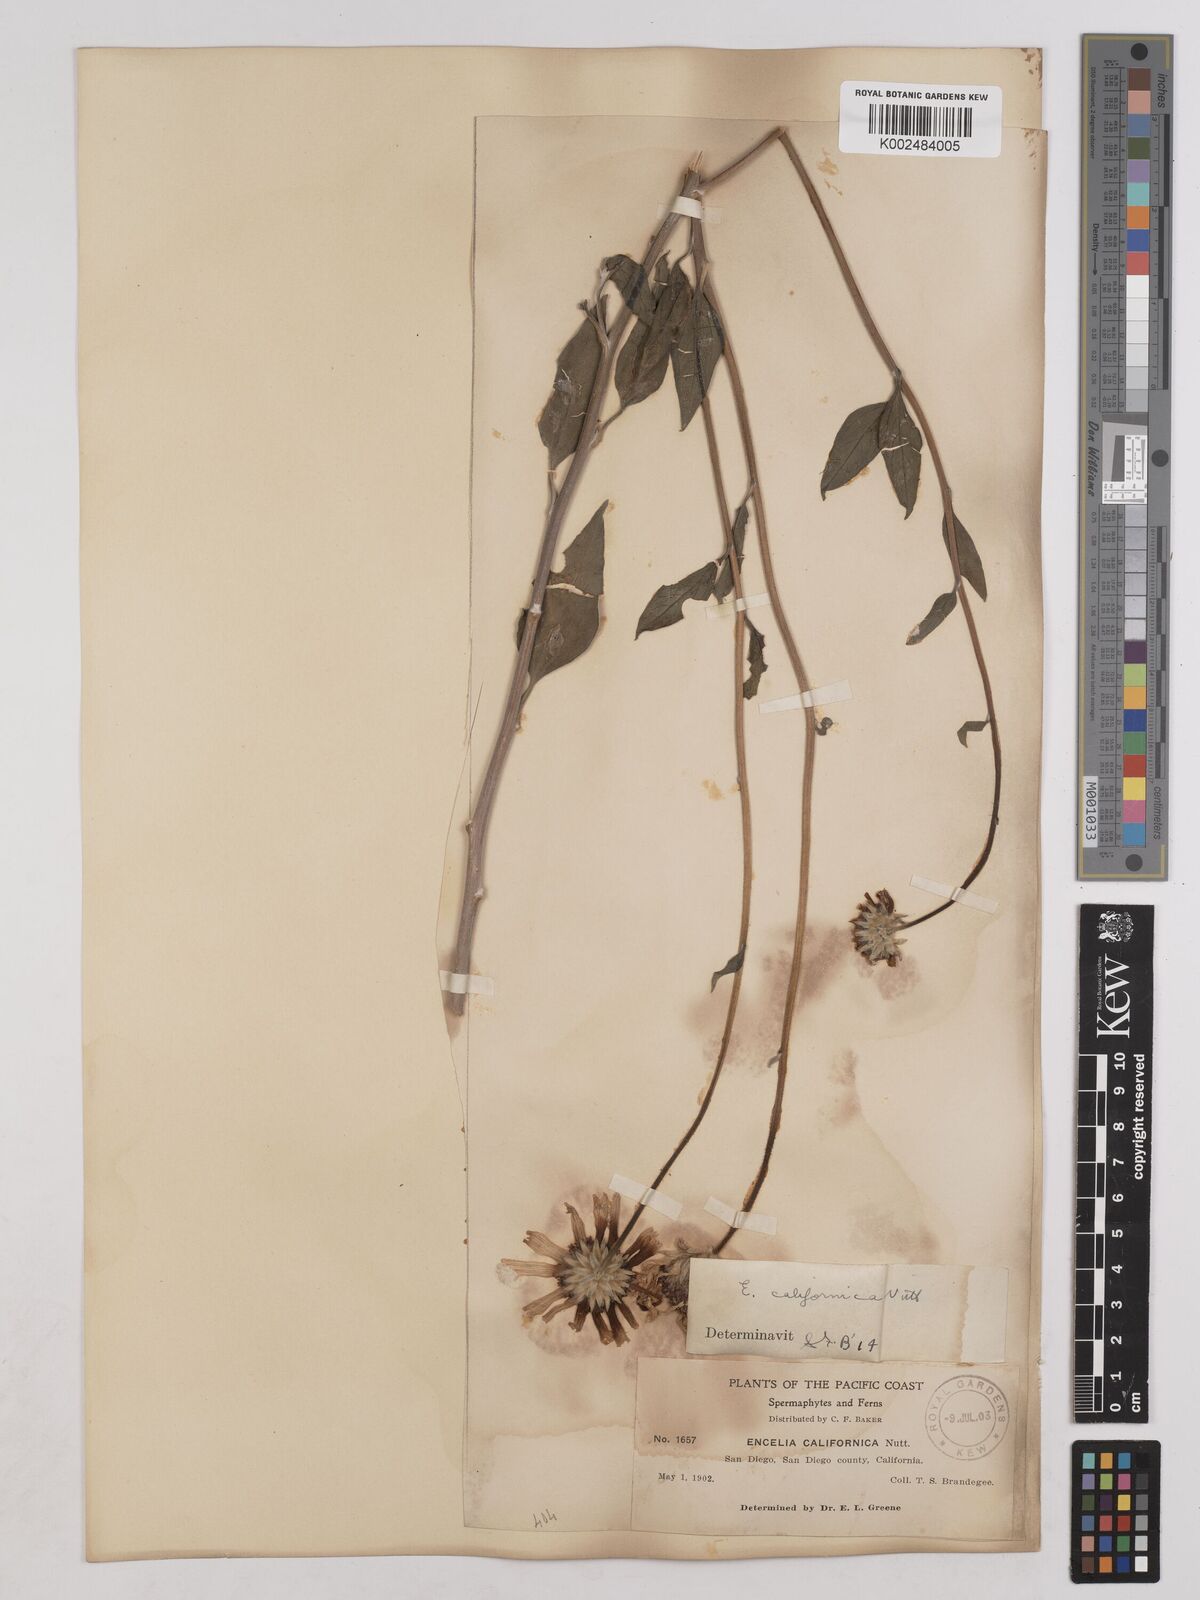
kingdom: Plantae
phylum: Tracheophyta
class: Magnoliopsida
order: Asterales
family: Asteraceae
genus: Encelia
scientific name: Encelia californica
